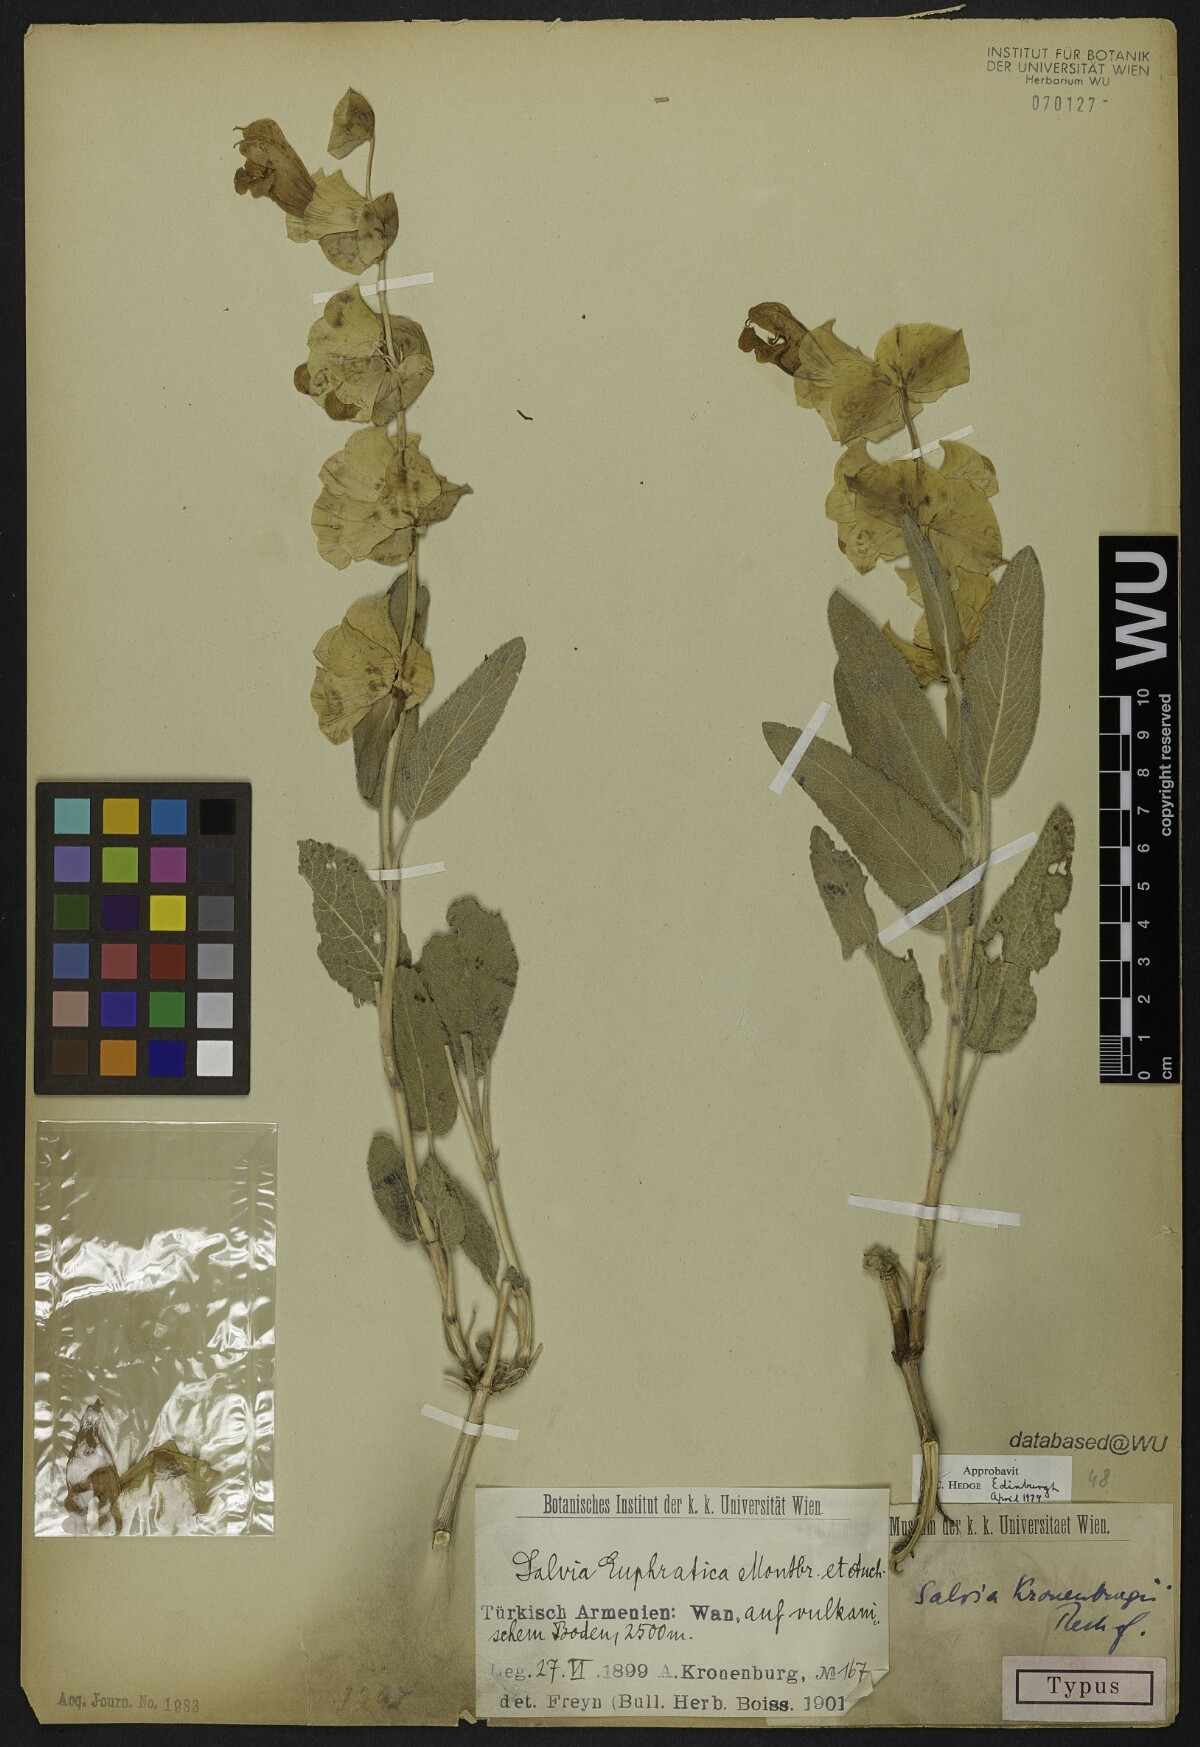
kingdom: Plantae
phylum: Tracheophyta
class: Magnoliopsida
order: Lamiales
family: Lamiaceae
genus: Salvia
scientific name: Salvia kronenburgii
